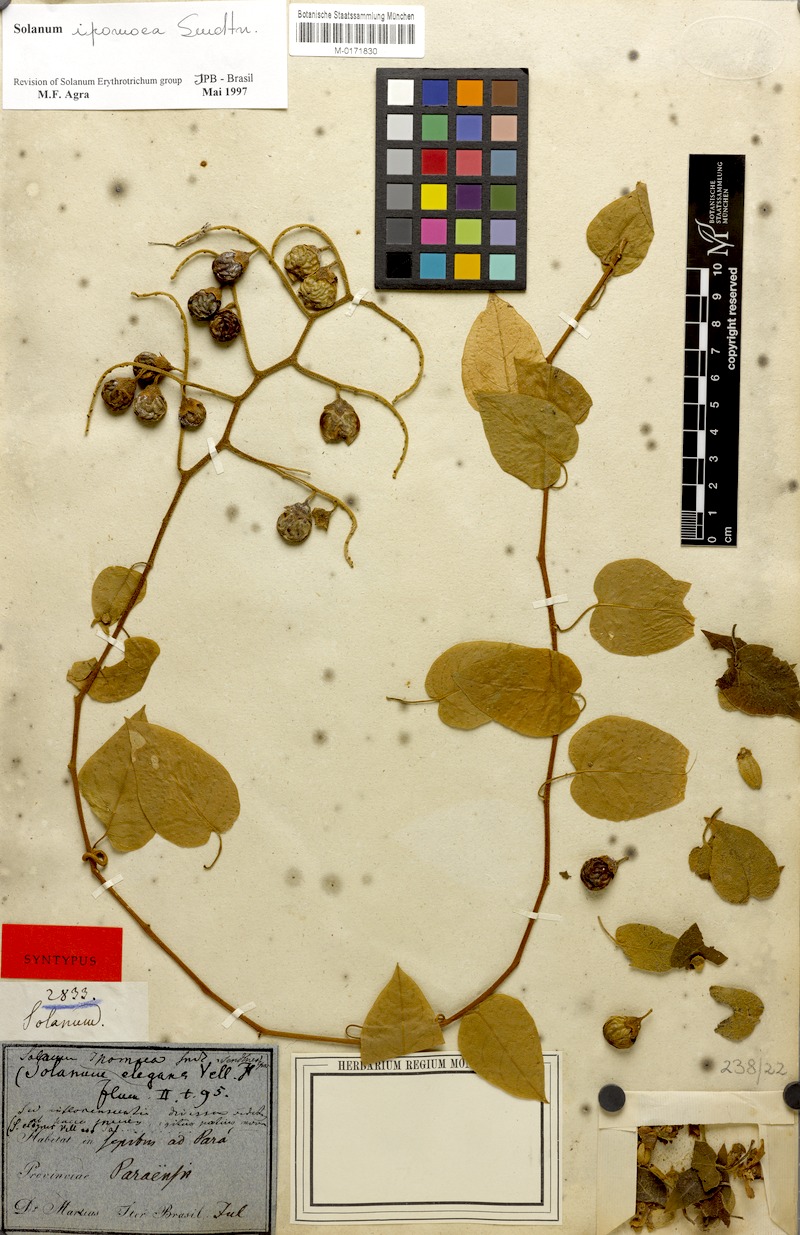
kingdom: Plantae
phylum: Tracheophyta
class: Magnoliopsida
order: Solanales
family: Solanaceae
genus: Solanum
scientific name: Solanum uncinellum
